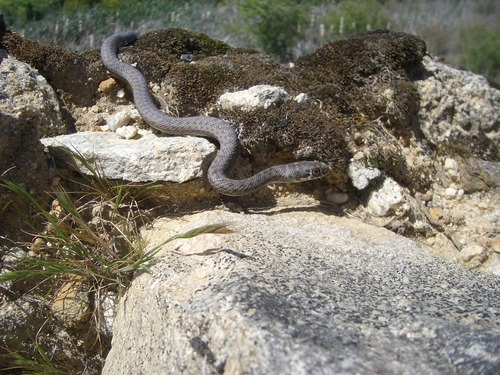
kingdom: Animalia
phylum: Chordata
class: Squamata
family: Psammophiidae
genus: Malpolon
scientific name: Malpolon monspessulanus
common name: Montpellier snake
